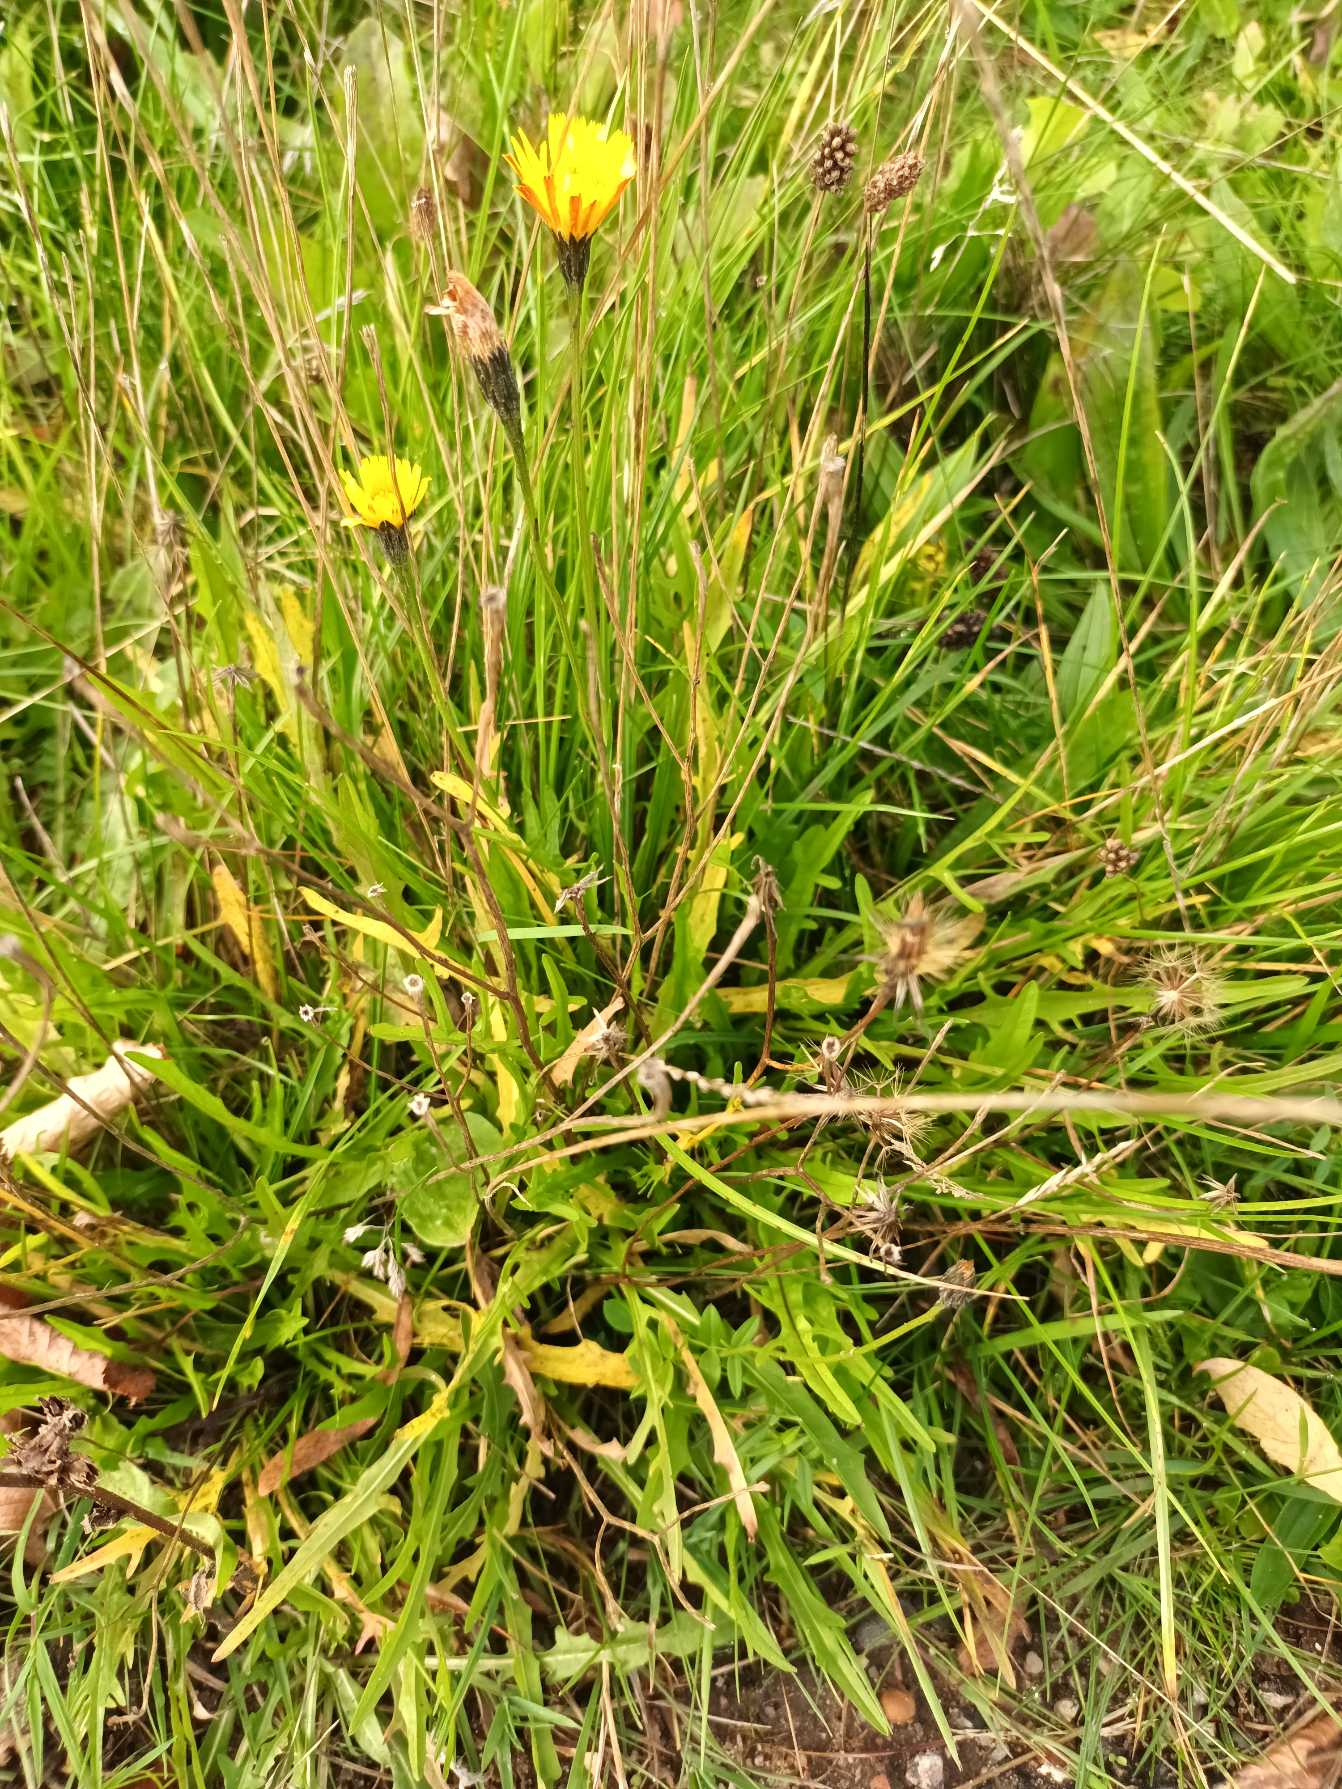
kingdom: Plantae
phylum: Tracheophyta
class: Magnoliopsida
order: Asterales
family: Asteraceae
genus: Scorzoneroides
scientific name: Scorzoneroides autumnalis
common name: Høst-borst
